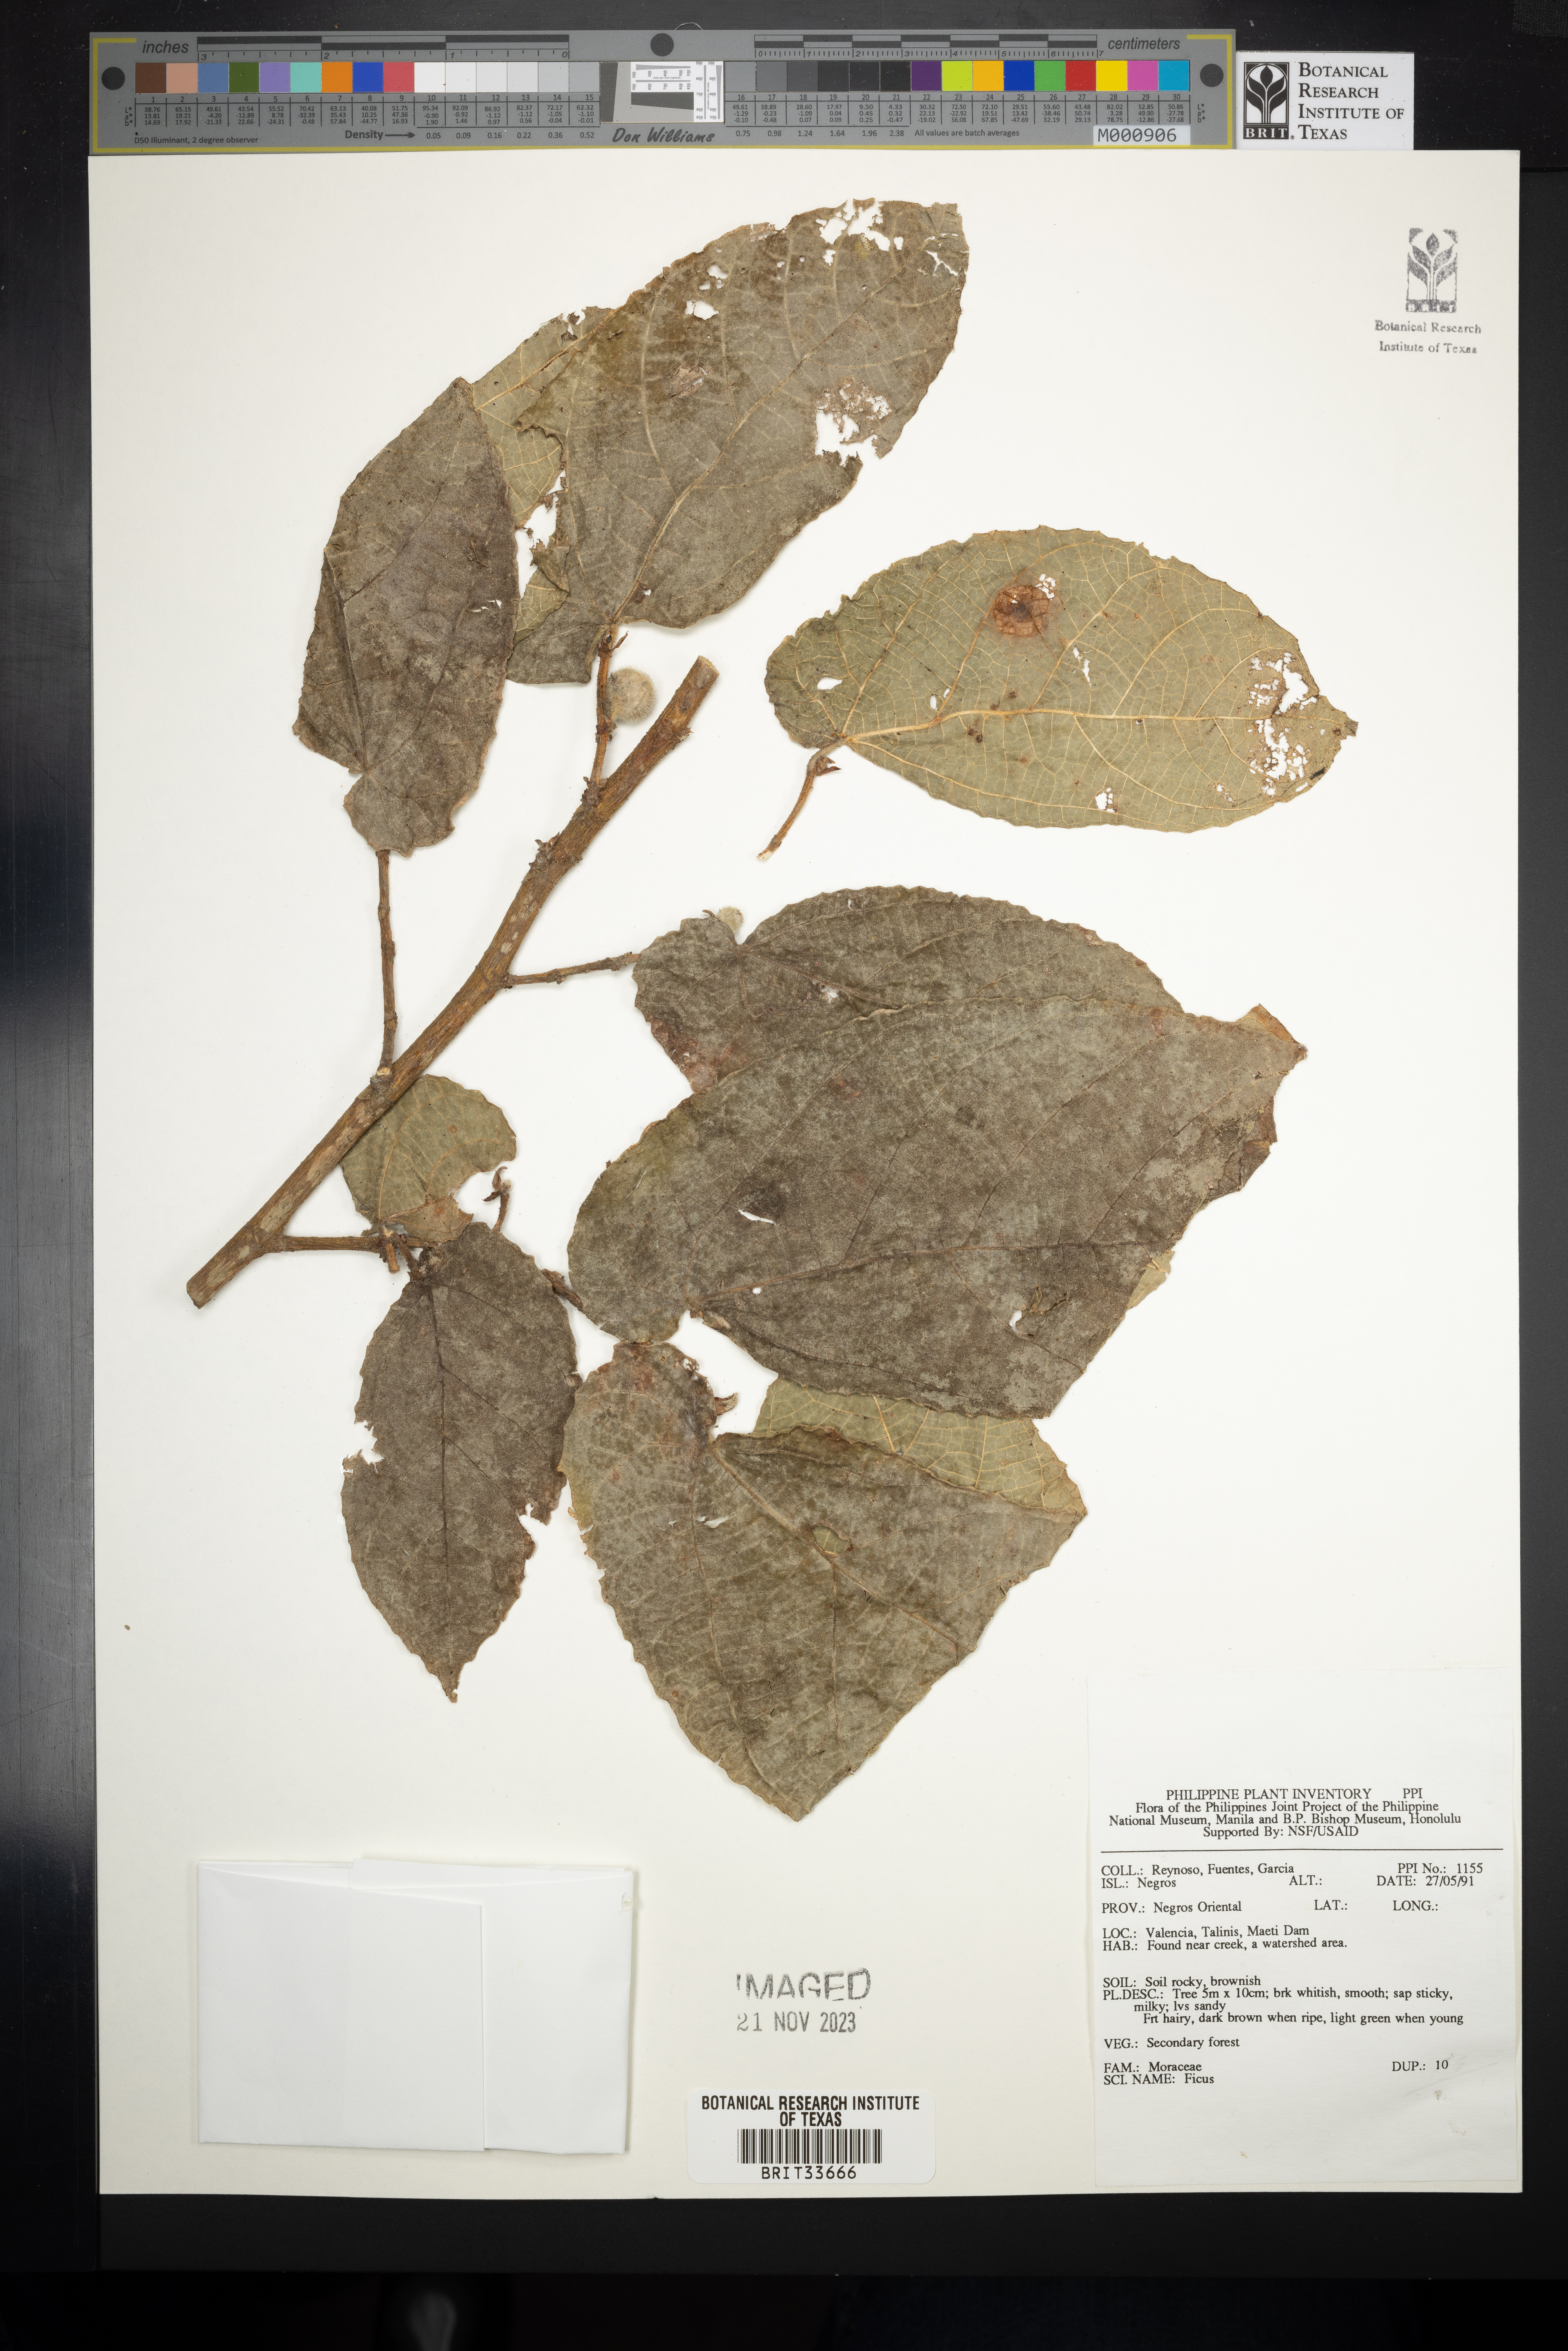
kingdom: Plantae
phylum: Tracheophyta
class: Magnoliopsida
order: Rosales
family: Moraceae
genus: Ficus
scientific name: Ficus
